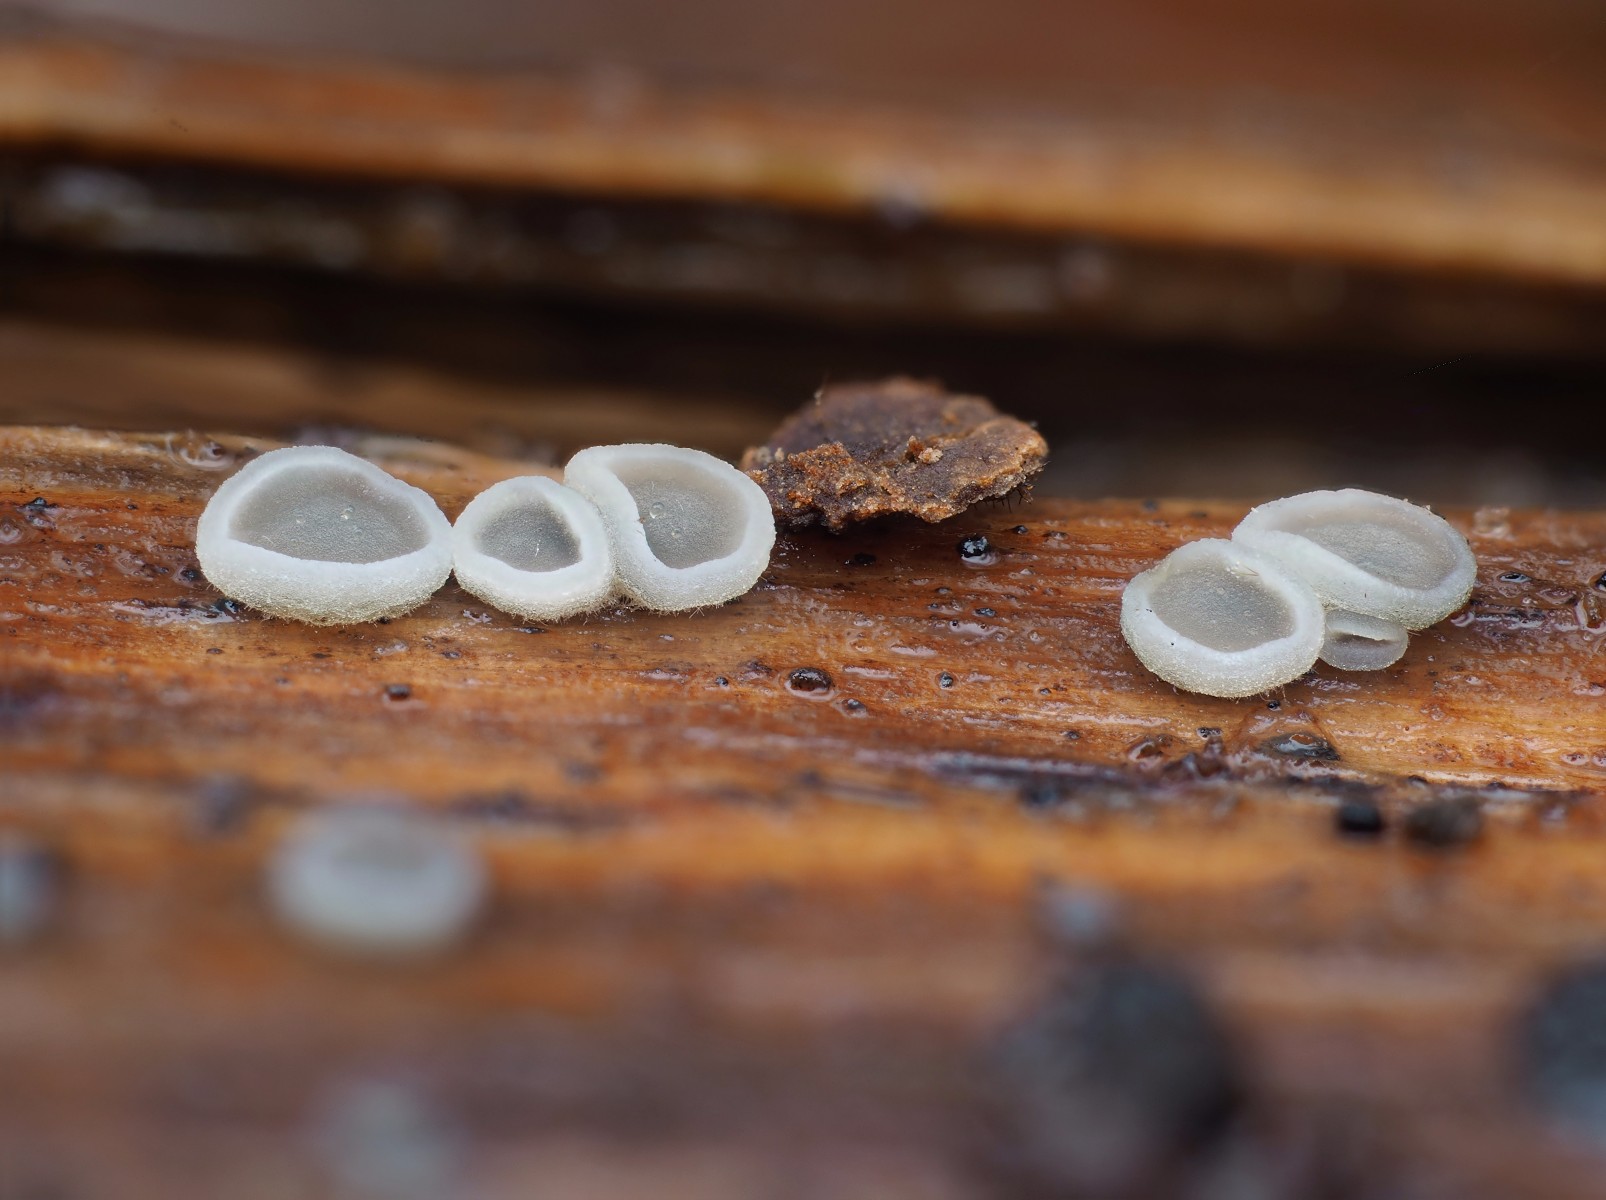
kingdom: Fungi
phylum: Ascomycota
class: Leotiomycetes
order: Helotiales
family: Mollisiaceae
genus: Mollisia
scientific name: Mollisia
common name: gråskive
